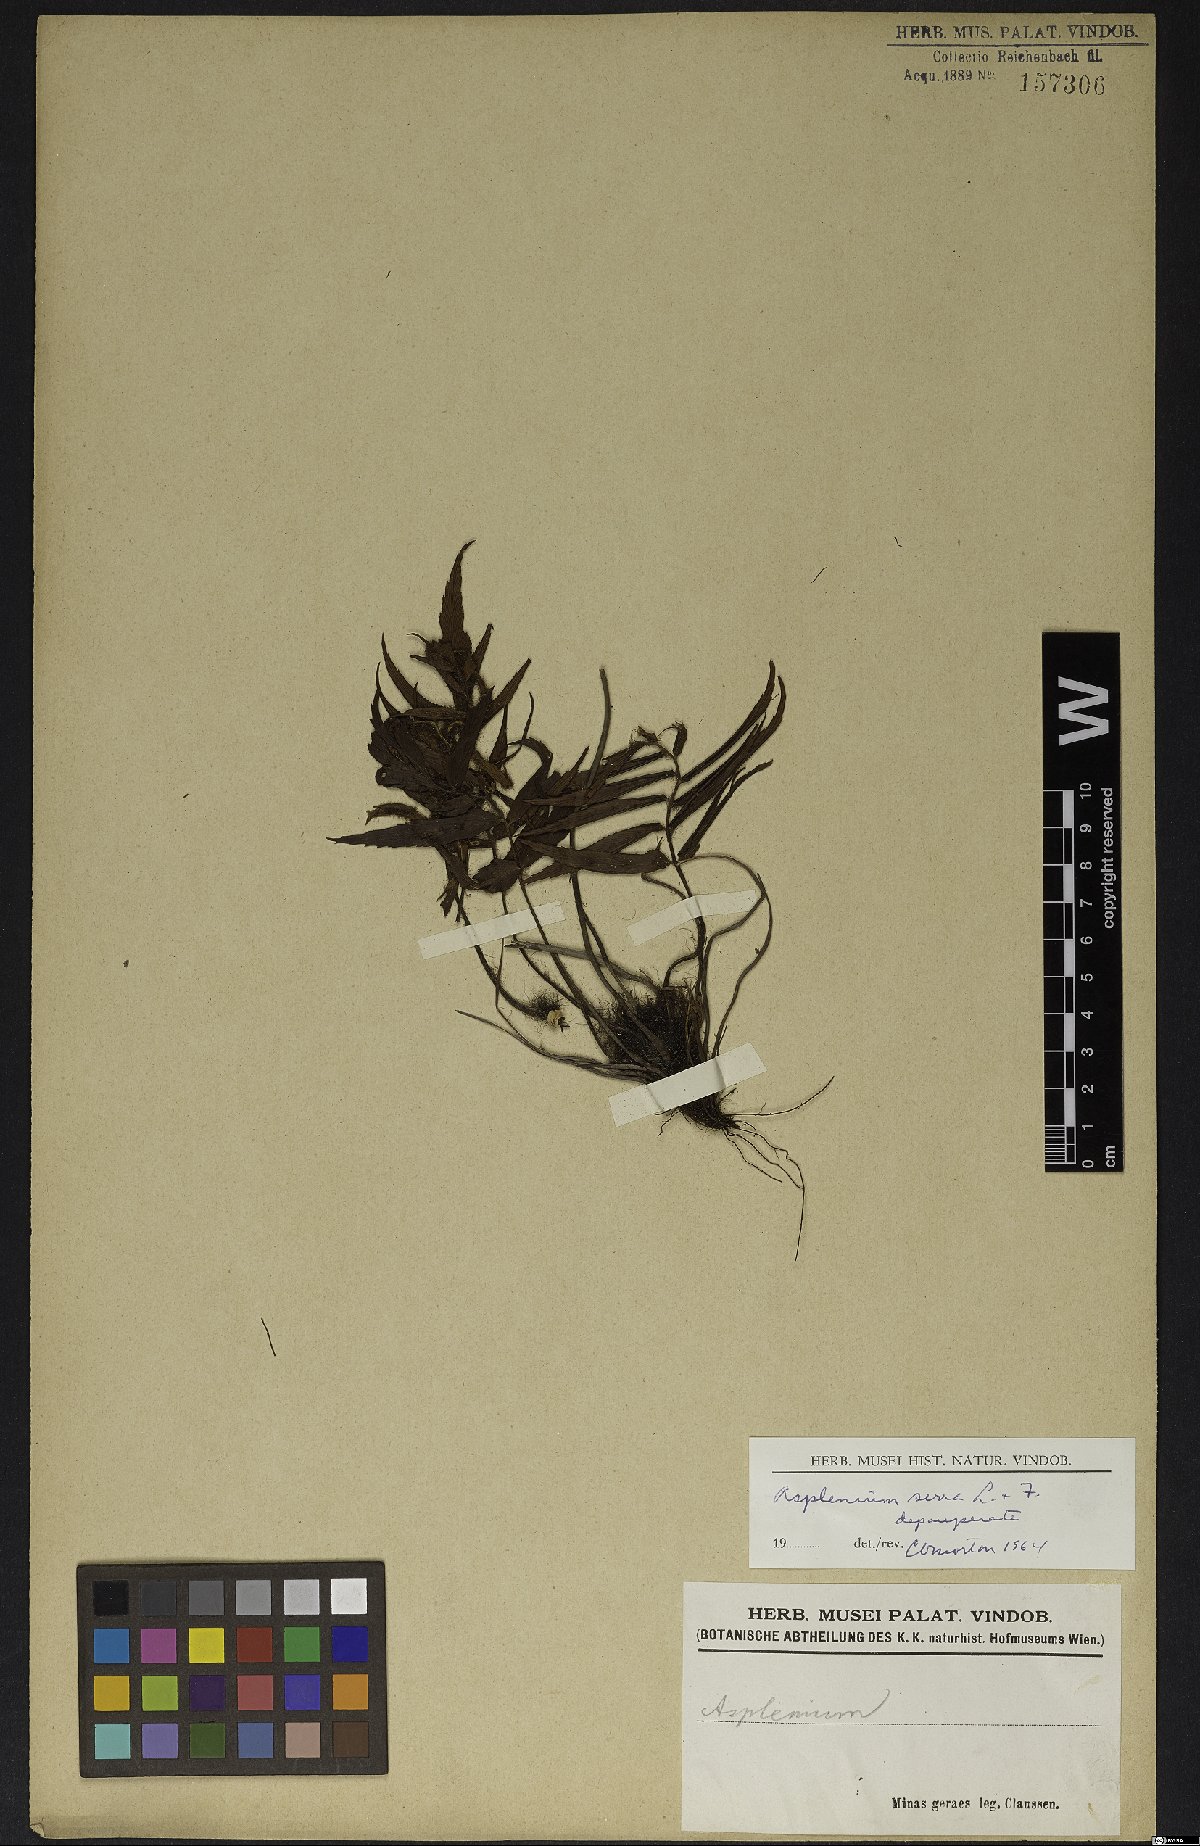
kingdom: Plantae
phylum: Tracheophyta
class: Polypodiopsida
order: Polypodiales
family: Aspleniaceae
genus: Asplenium
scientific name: Asplenium serra
